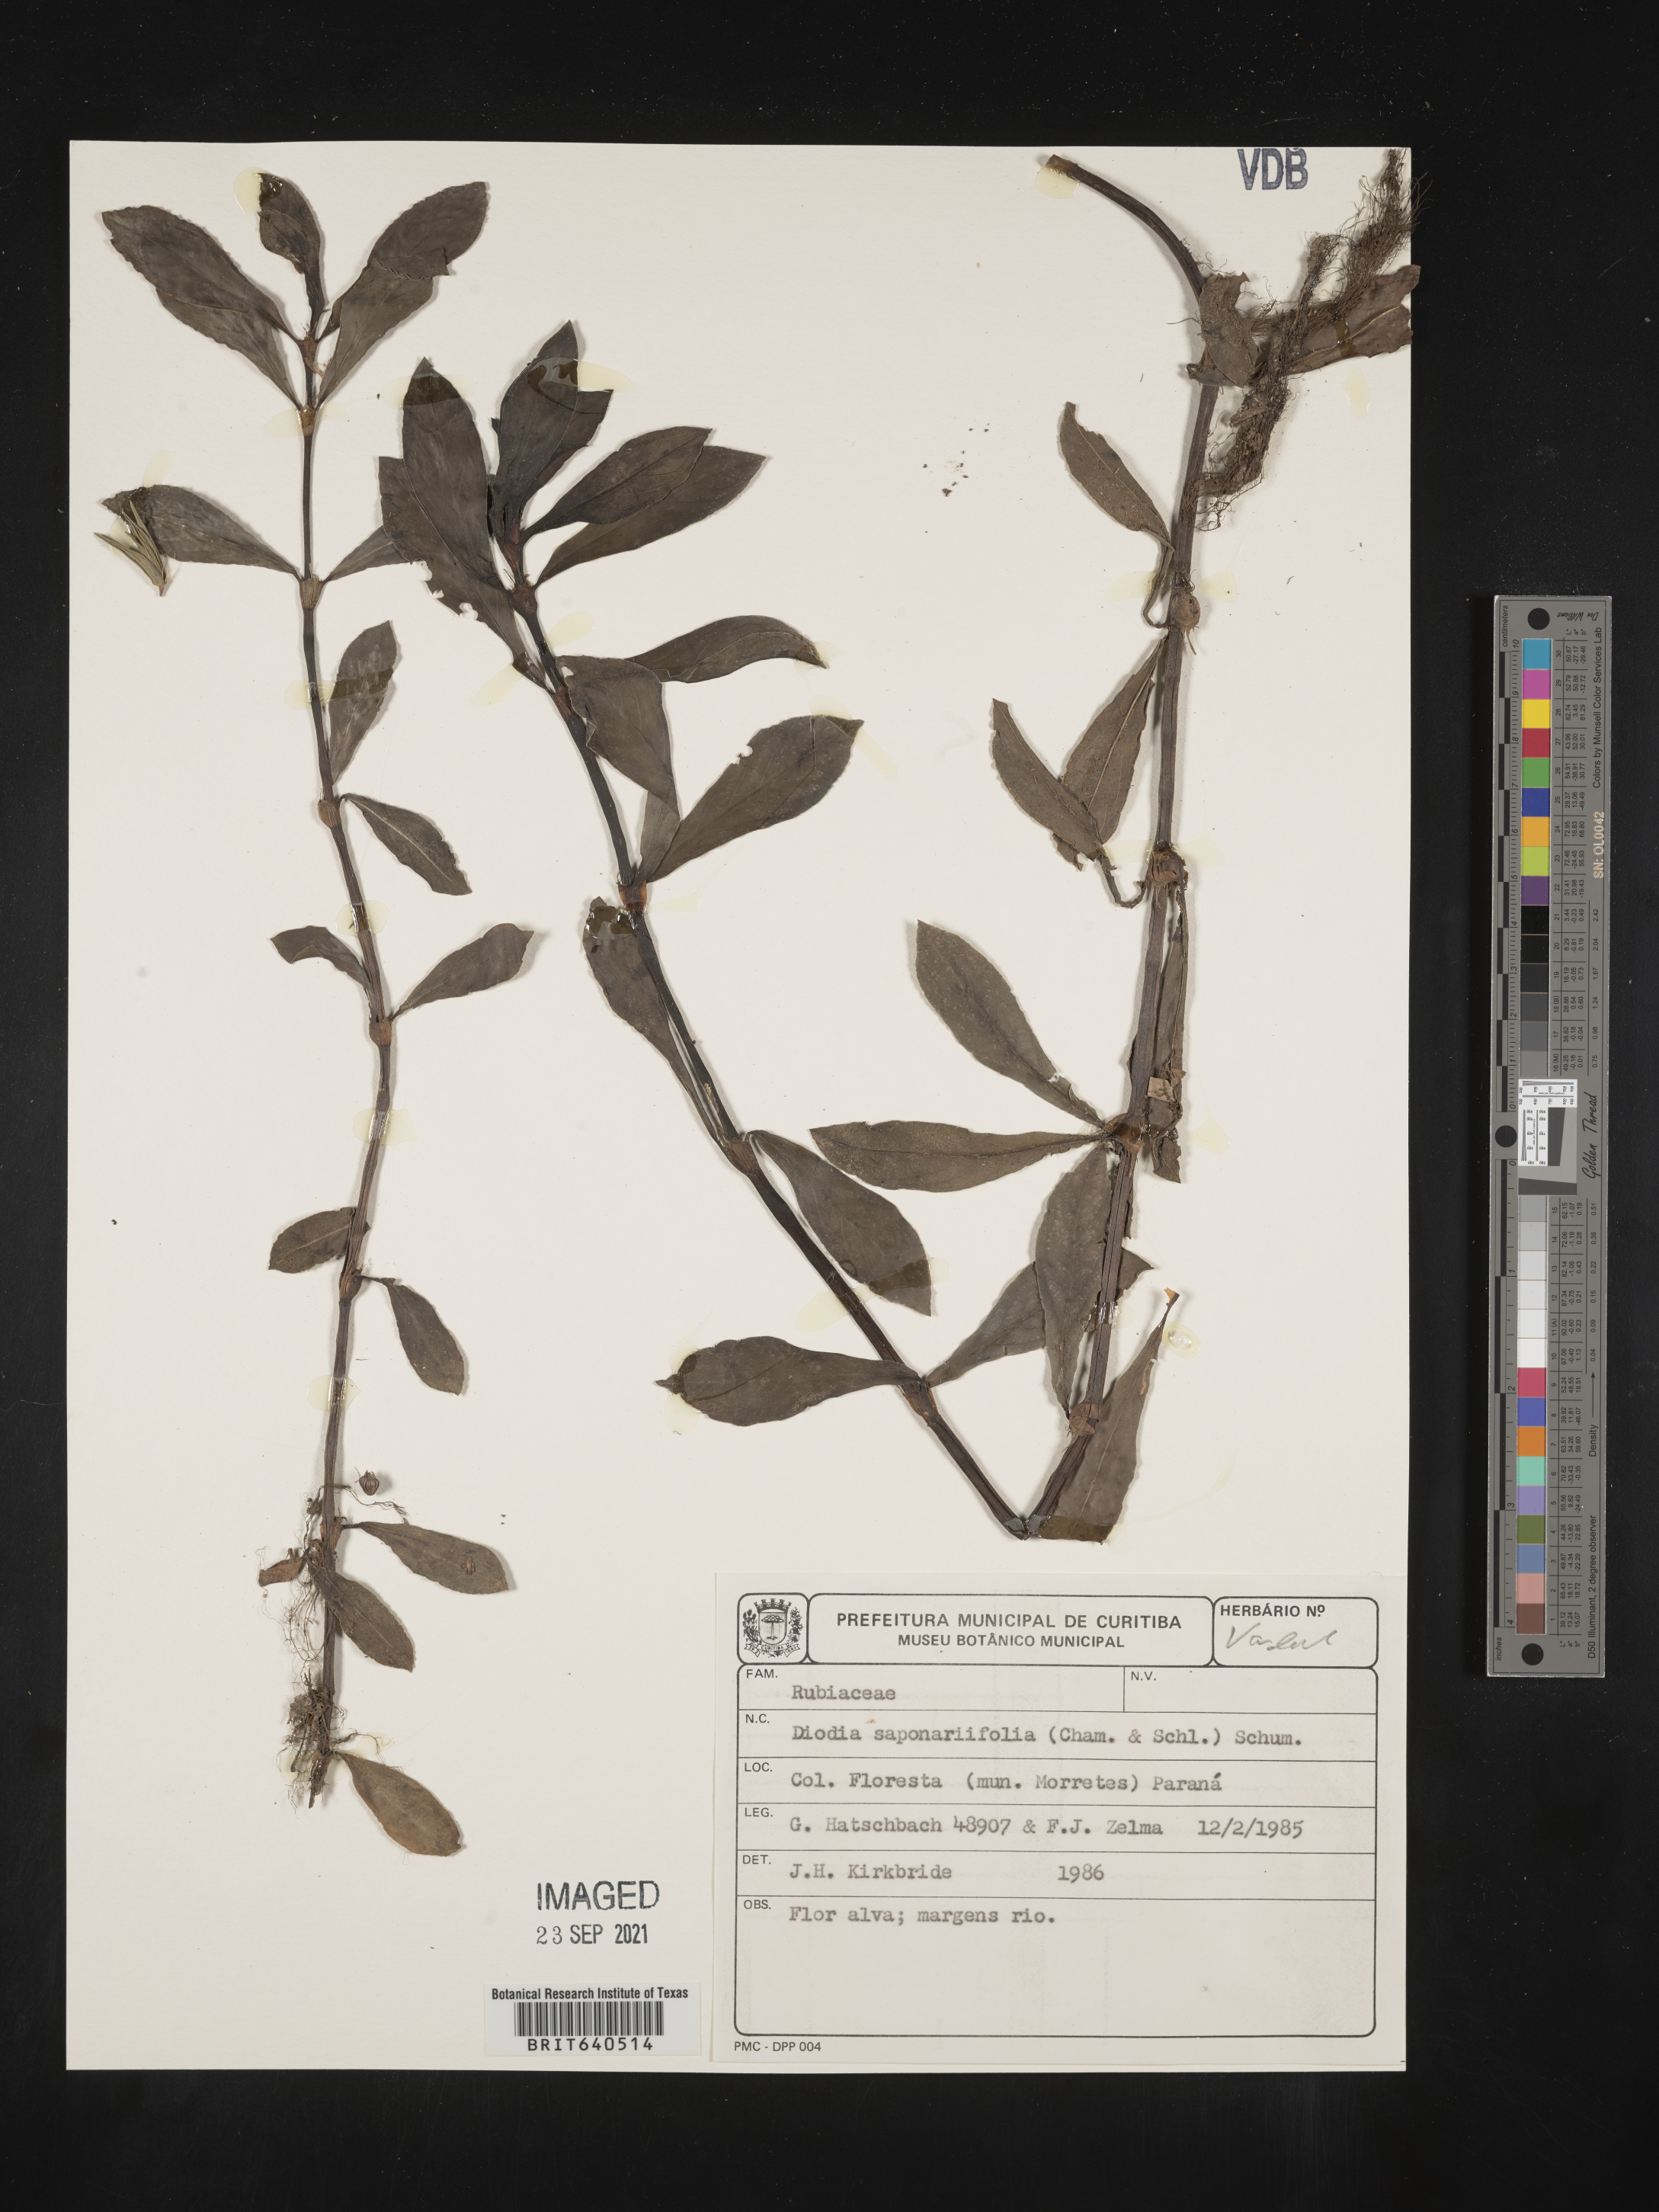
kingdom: Plantae
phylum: Tracheophyta
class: Magnoliopsida
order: Gentianales
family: Rubiaceae
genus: Diodia
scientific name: Diodia
